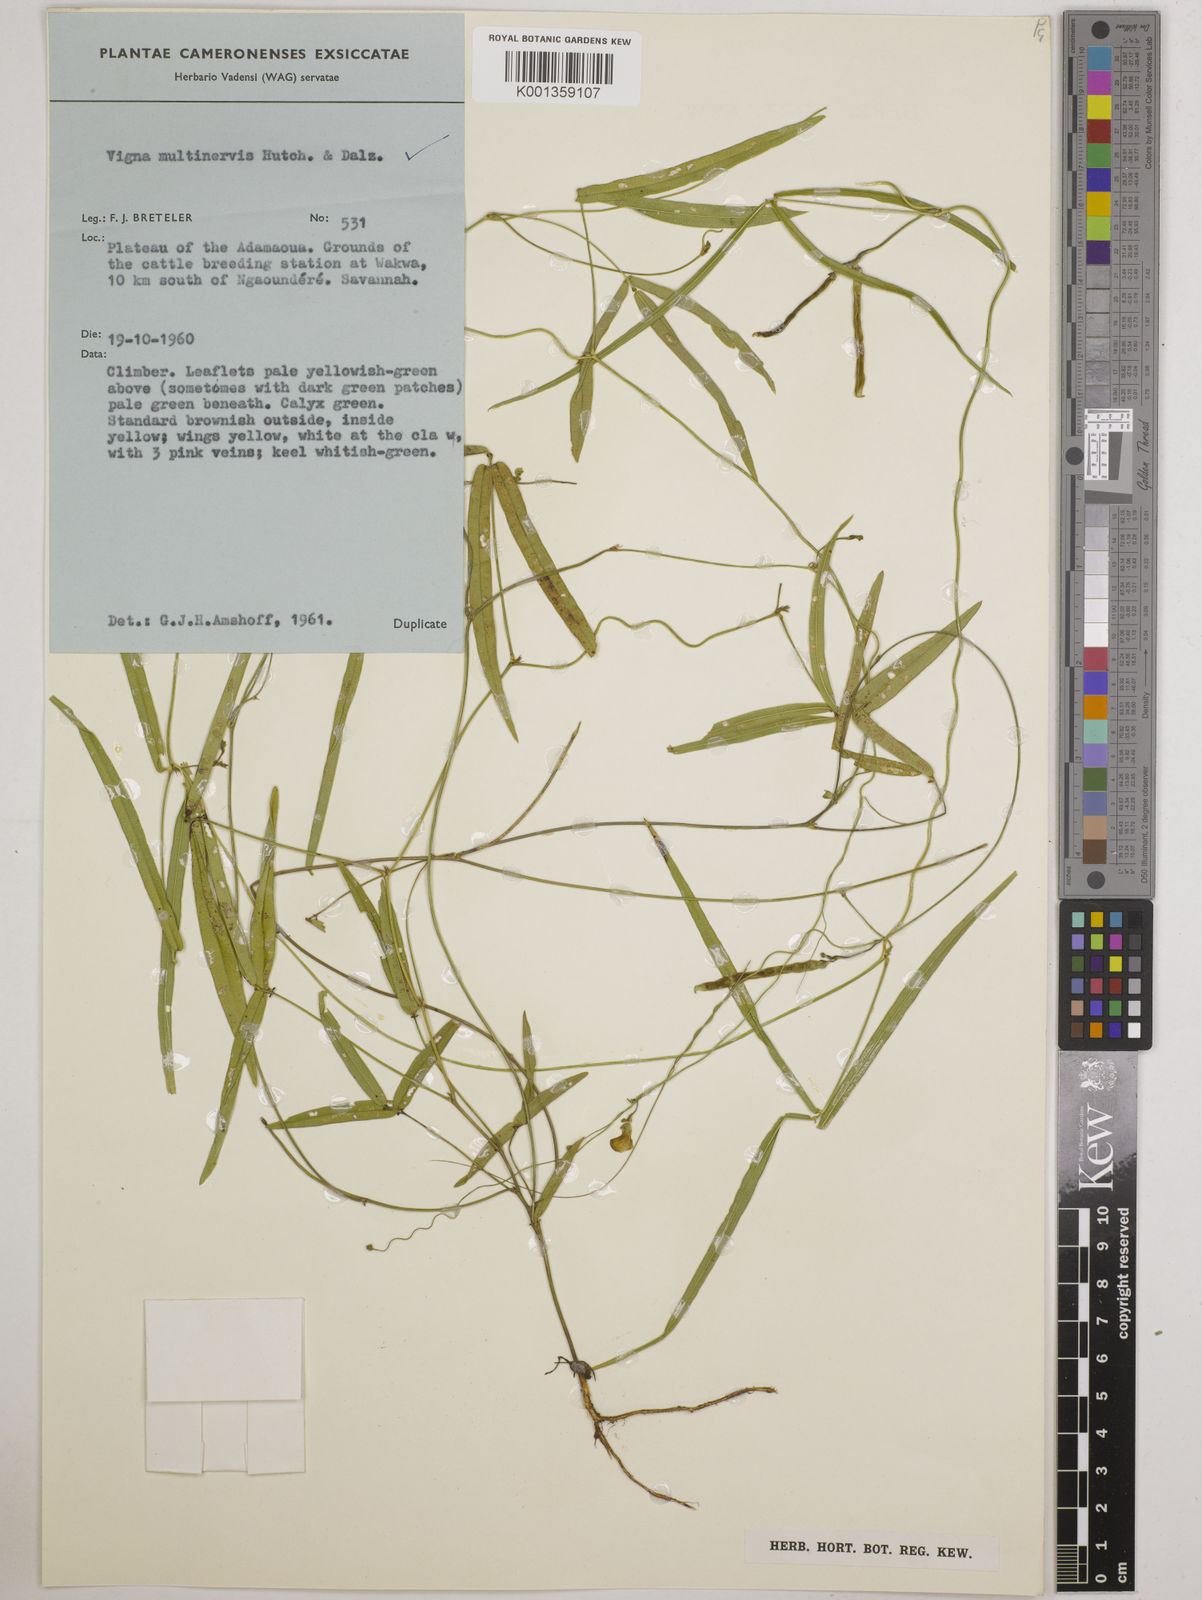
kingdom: Plantae
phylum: Tracheophyta
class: Magnoliopsida
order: Fabales
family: Fabaceae
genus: Vigna
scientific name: Vigna multinervis
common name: Fula-pulaar
